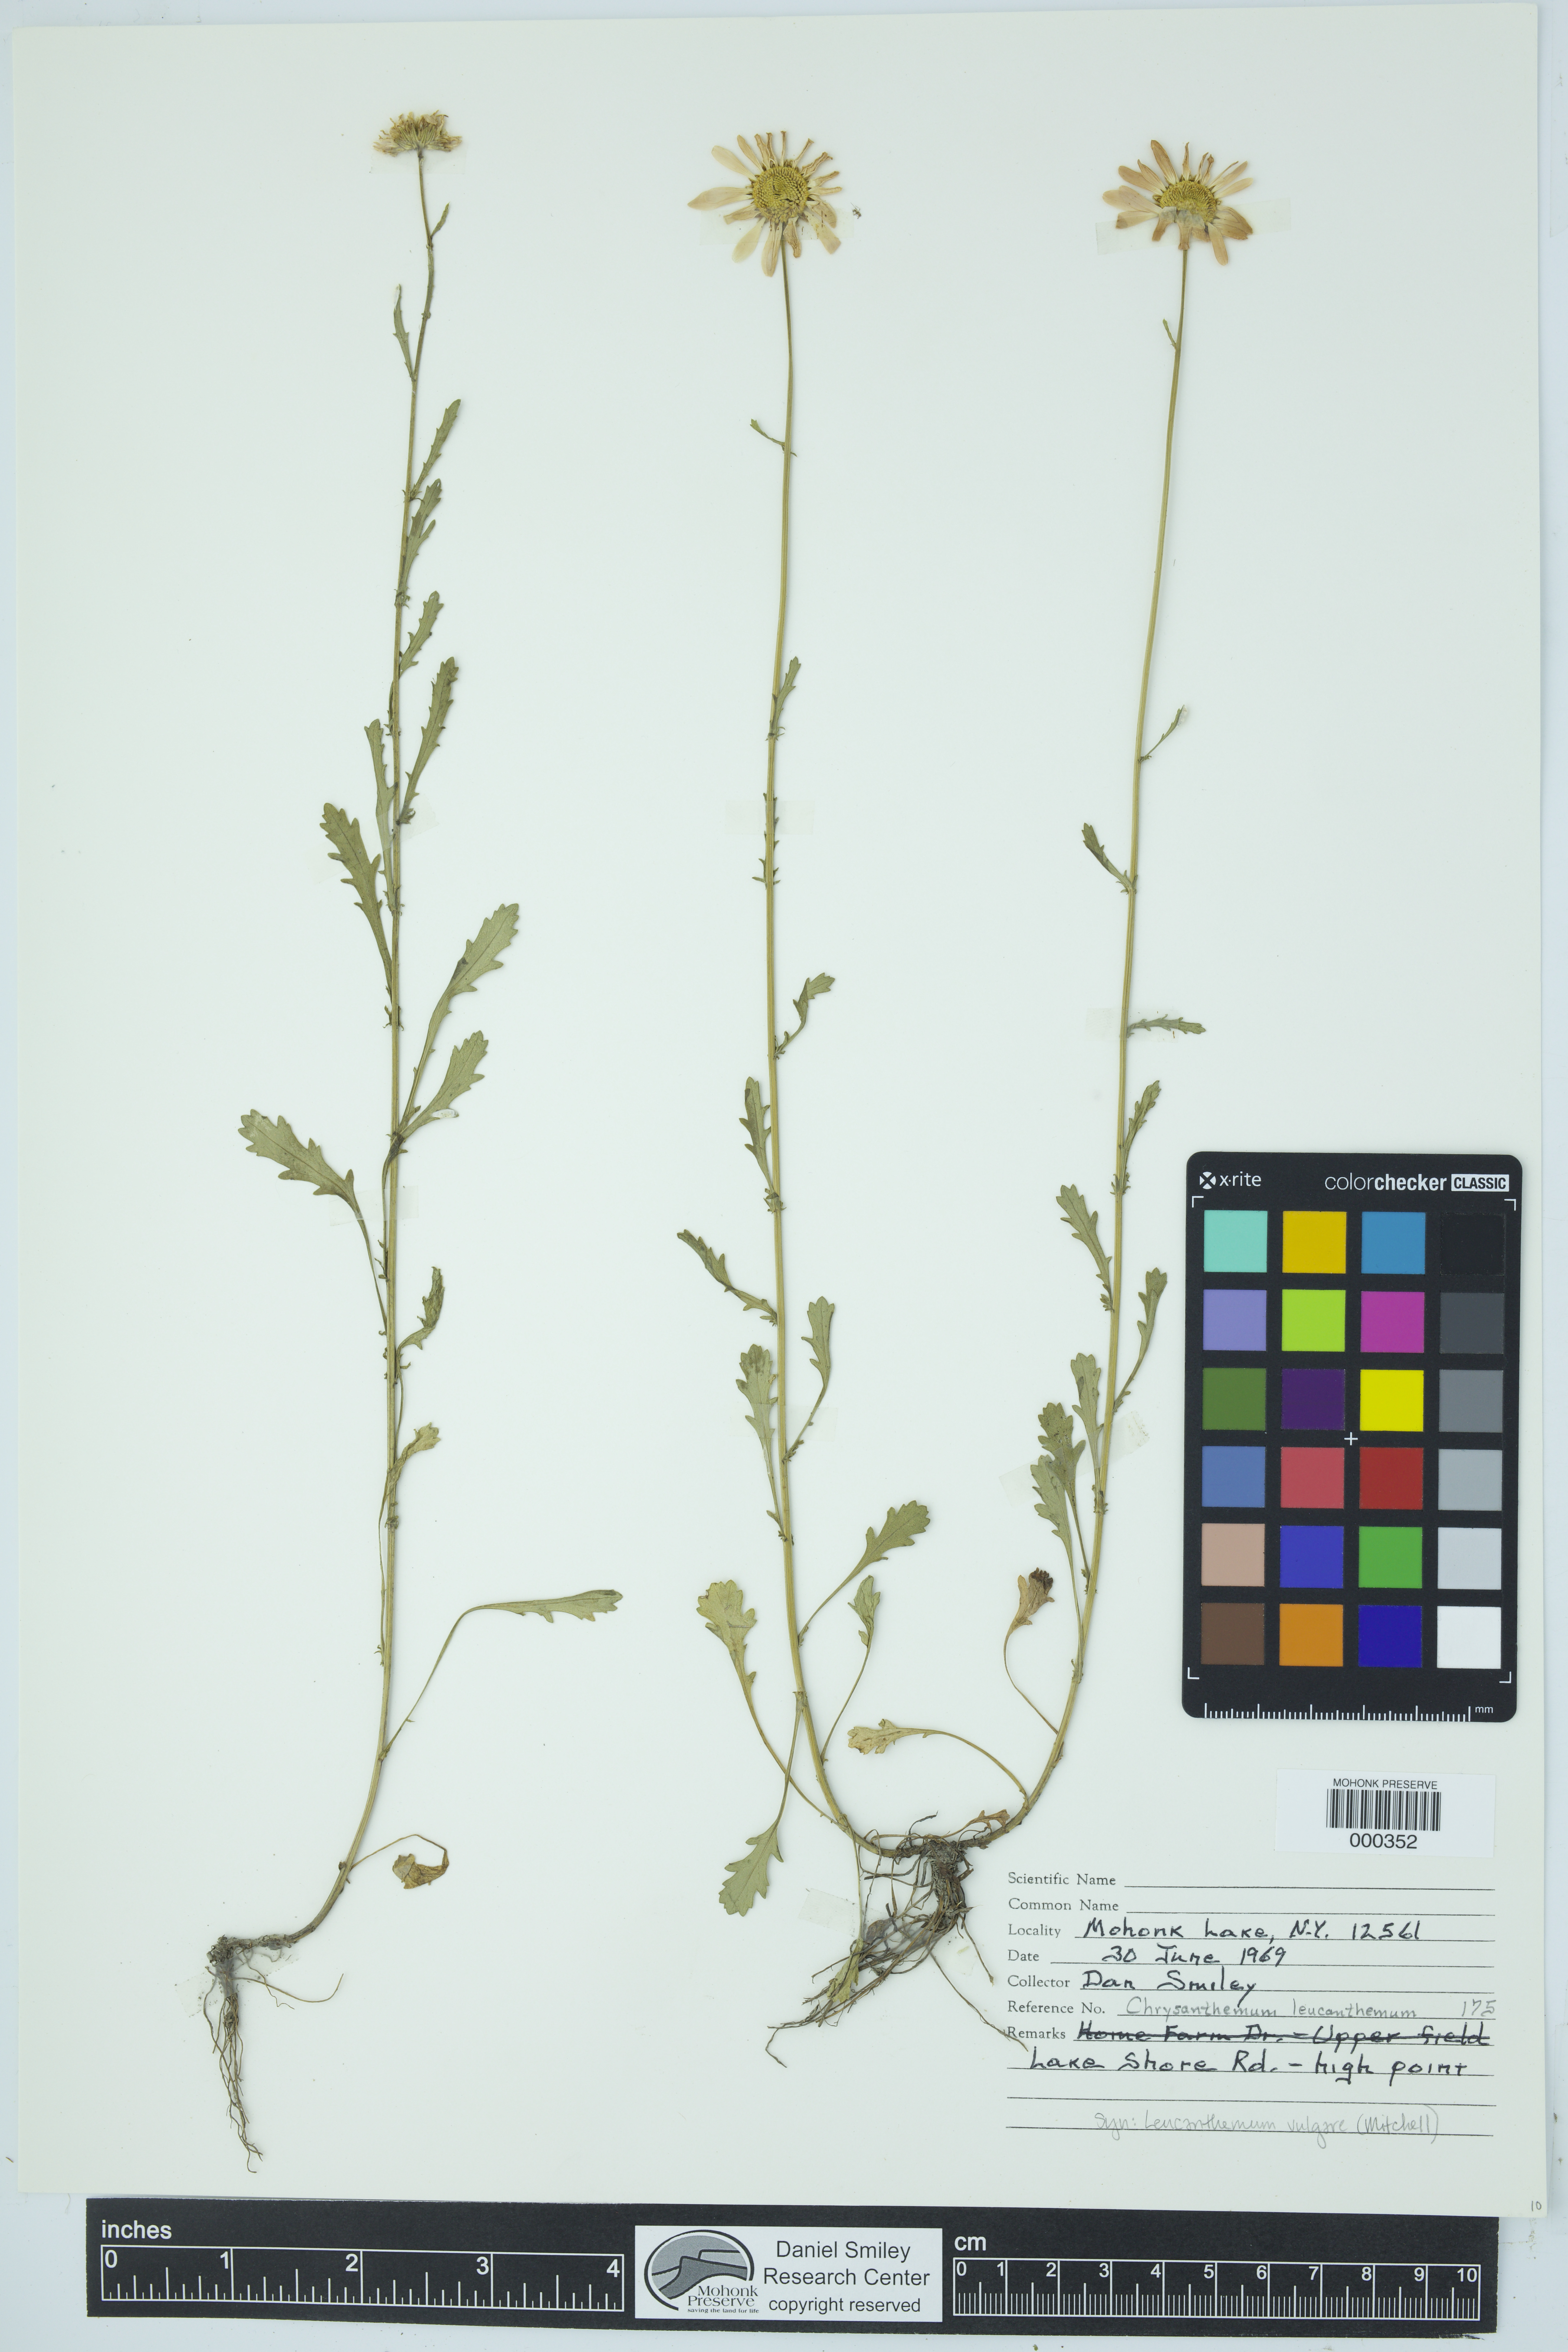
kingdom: Plantae
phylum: Tracheophyta
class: Magnoliopsida
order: Asterales
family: Asteraceae
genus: Leucanthemum
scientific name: Leucanthemum vulgare
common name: Oxeye daisy
